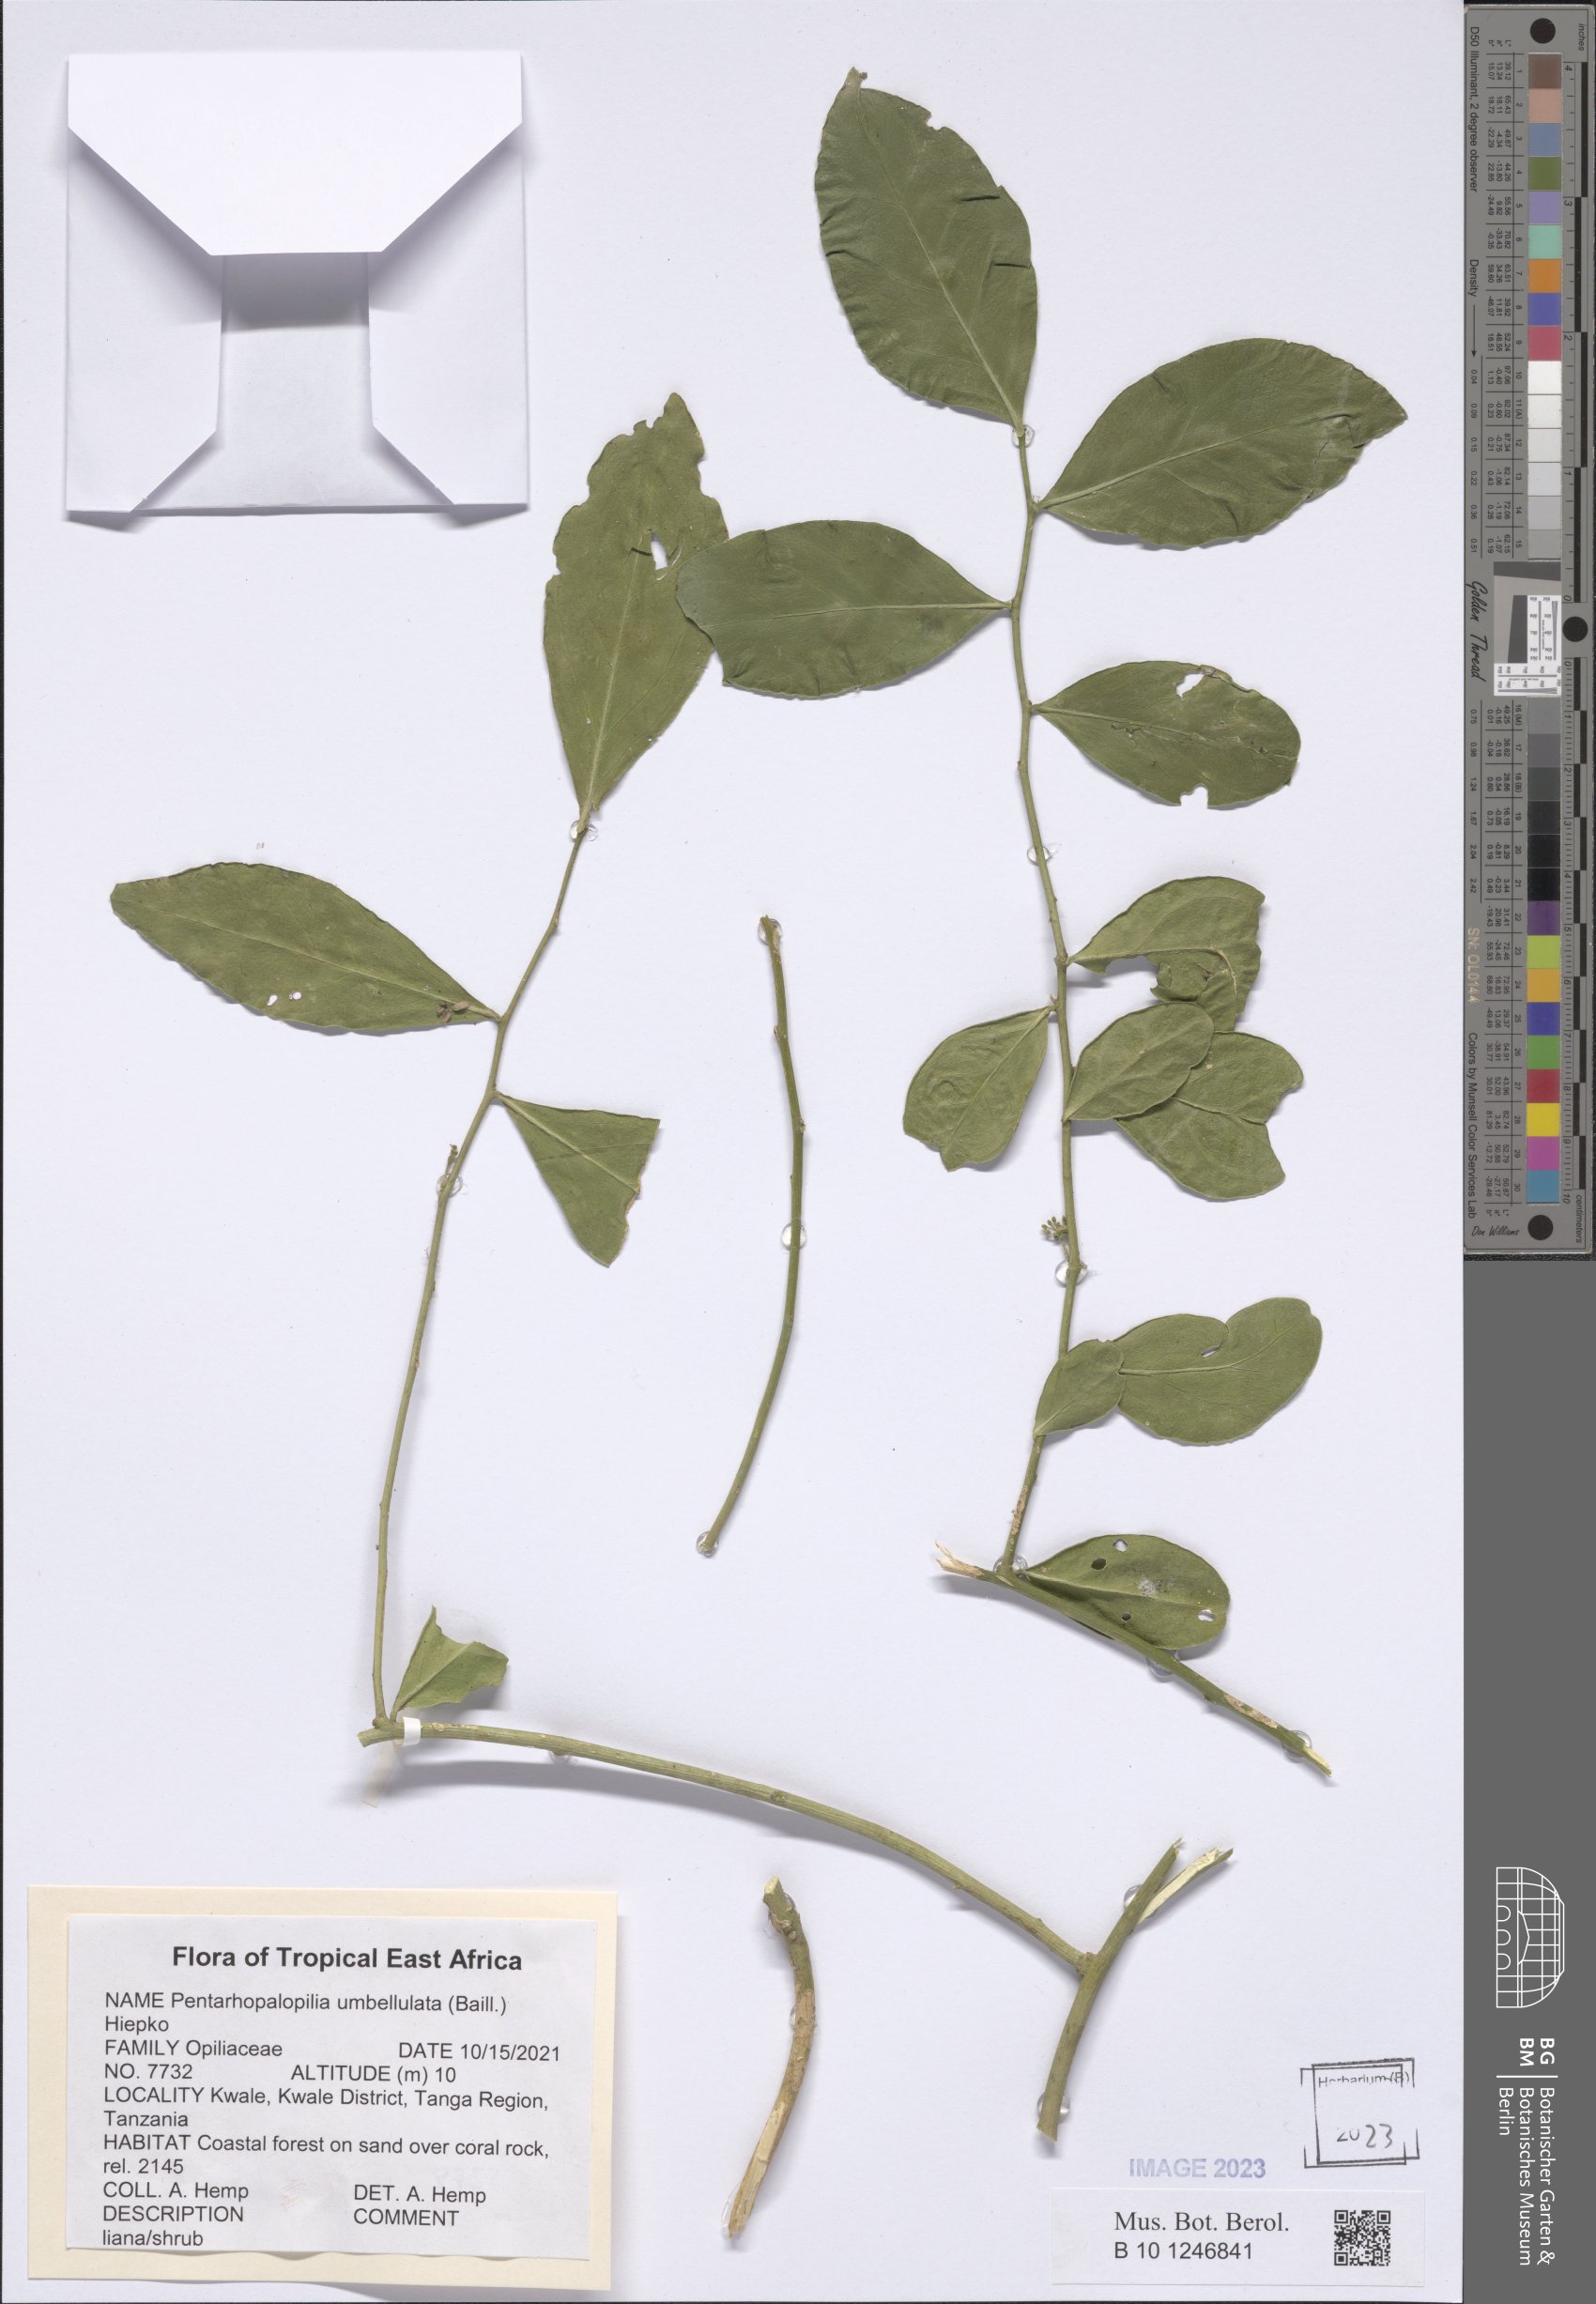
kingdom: Plantae
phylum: Tracheophyta
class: Magnoliopsida
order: Santalales
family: Opiliaceae
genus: Pentarhopalopilia
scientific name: Pentarhopalopilia umbellulata
